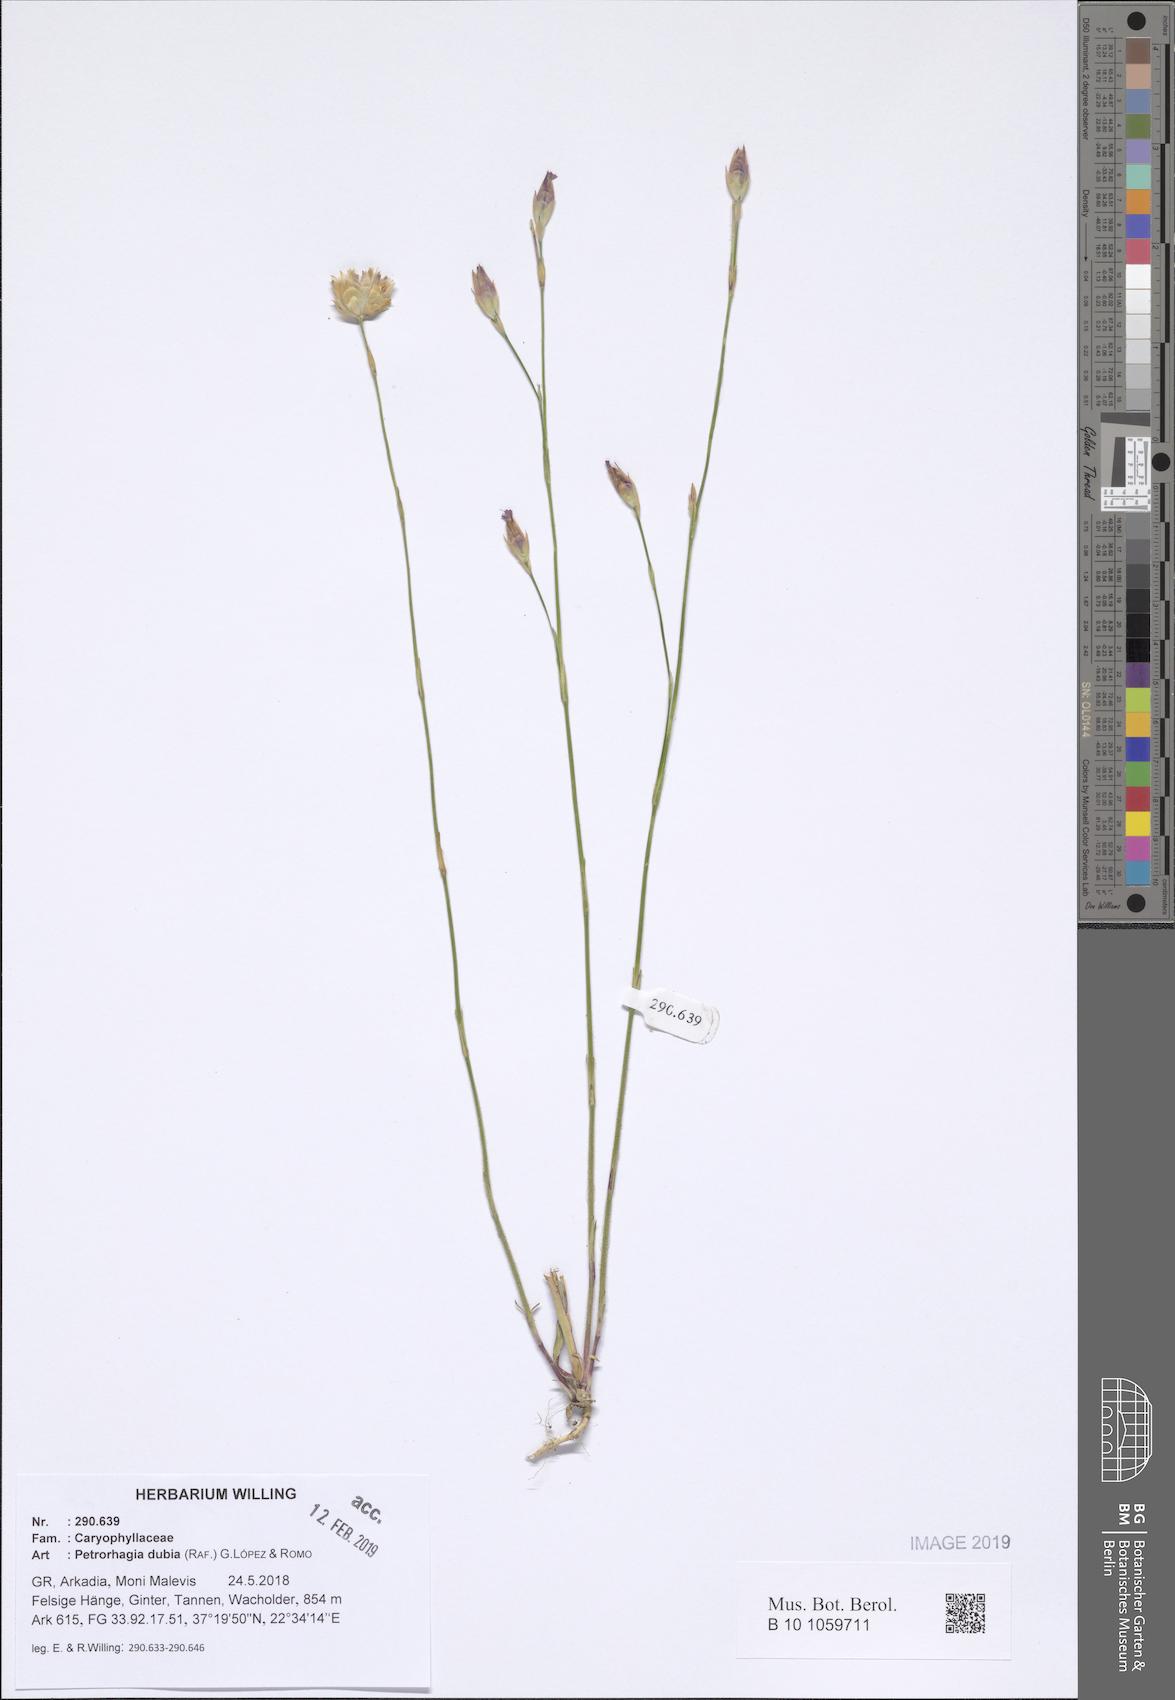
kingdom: Plantae
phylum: Tracheophyta
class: Magnoliopsida
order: Caryophyllales
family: Caryophyllaceae
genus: Petrorhagia
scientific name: Petrorhagia dubia
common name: Hairypink
